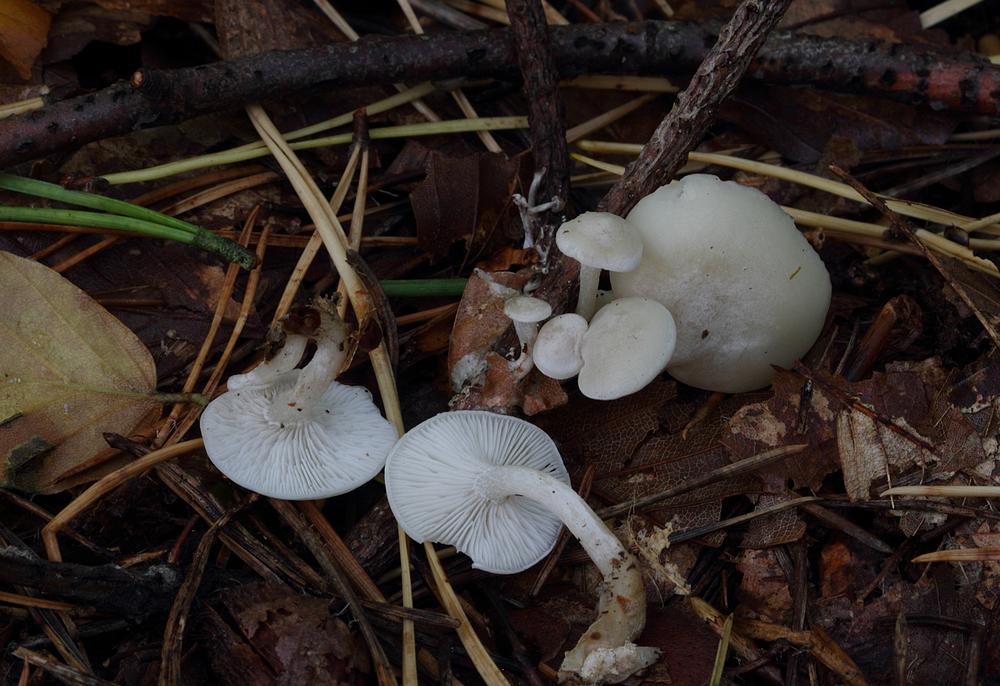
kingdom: Fungi
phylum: Basidiomycota
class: Agaricomycetes
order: Agaricales
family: Tricholomataceae
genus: Leucocybe
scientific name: Leucocybe candicans
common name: kridt-tragthat
